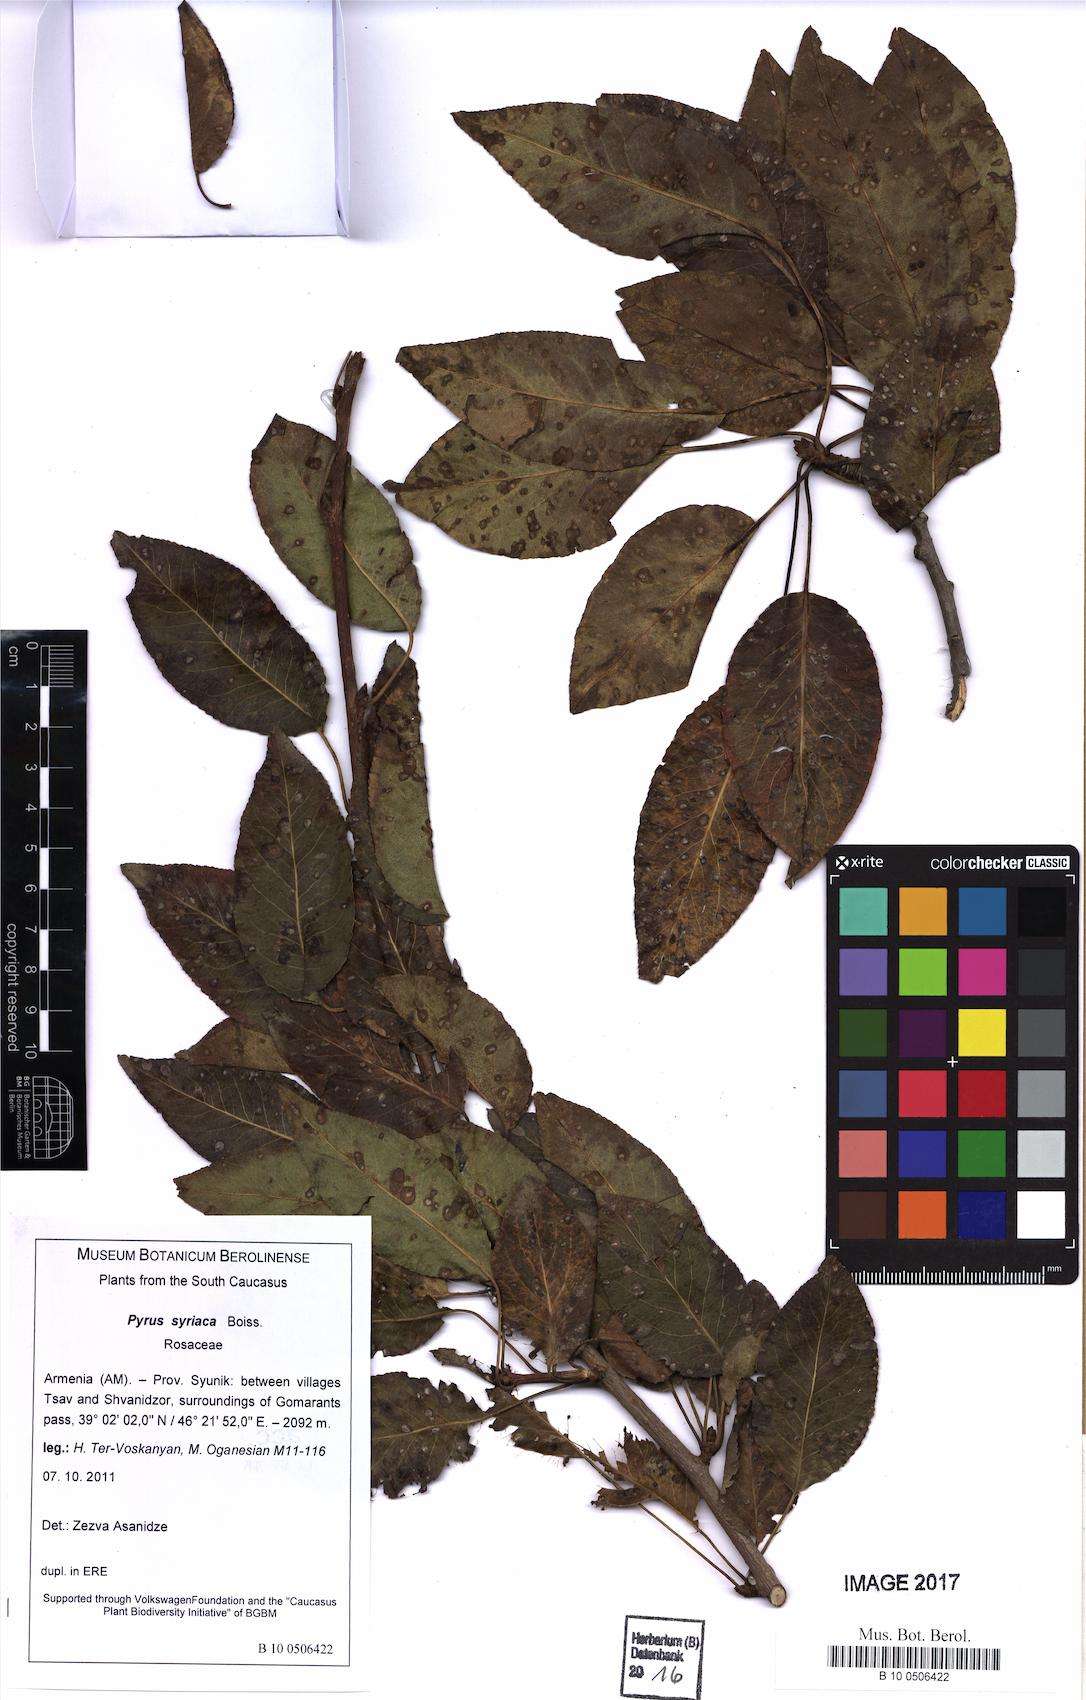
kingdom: Plantae
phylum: Tracheophyta
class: Magnoliopsida
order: Rosales
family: Rosaceae
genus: Pyrus
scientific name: Pyrus syriaca
